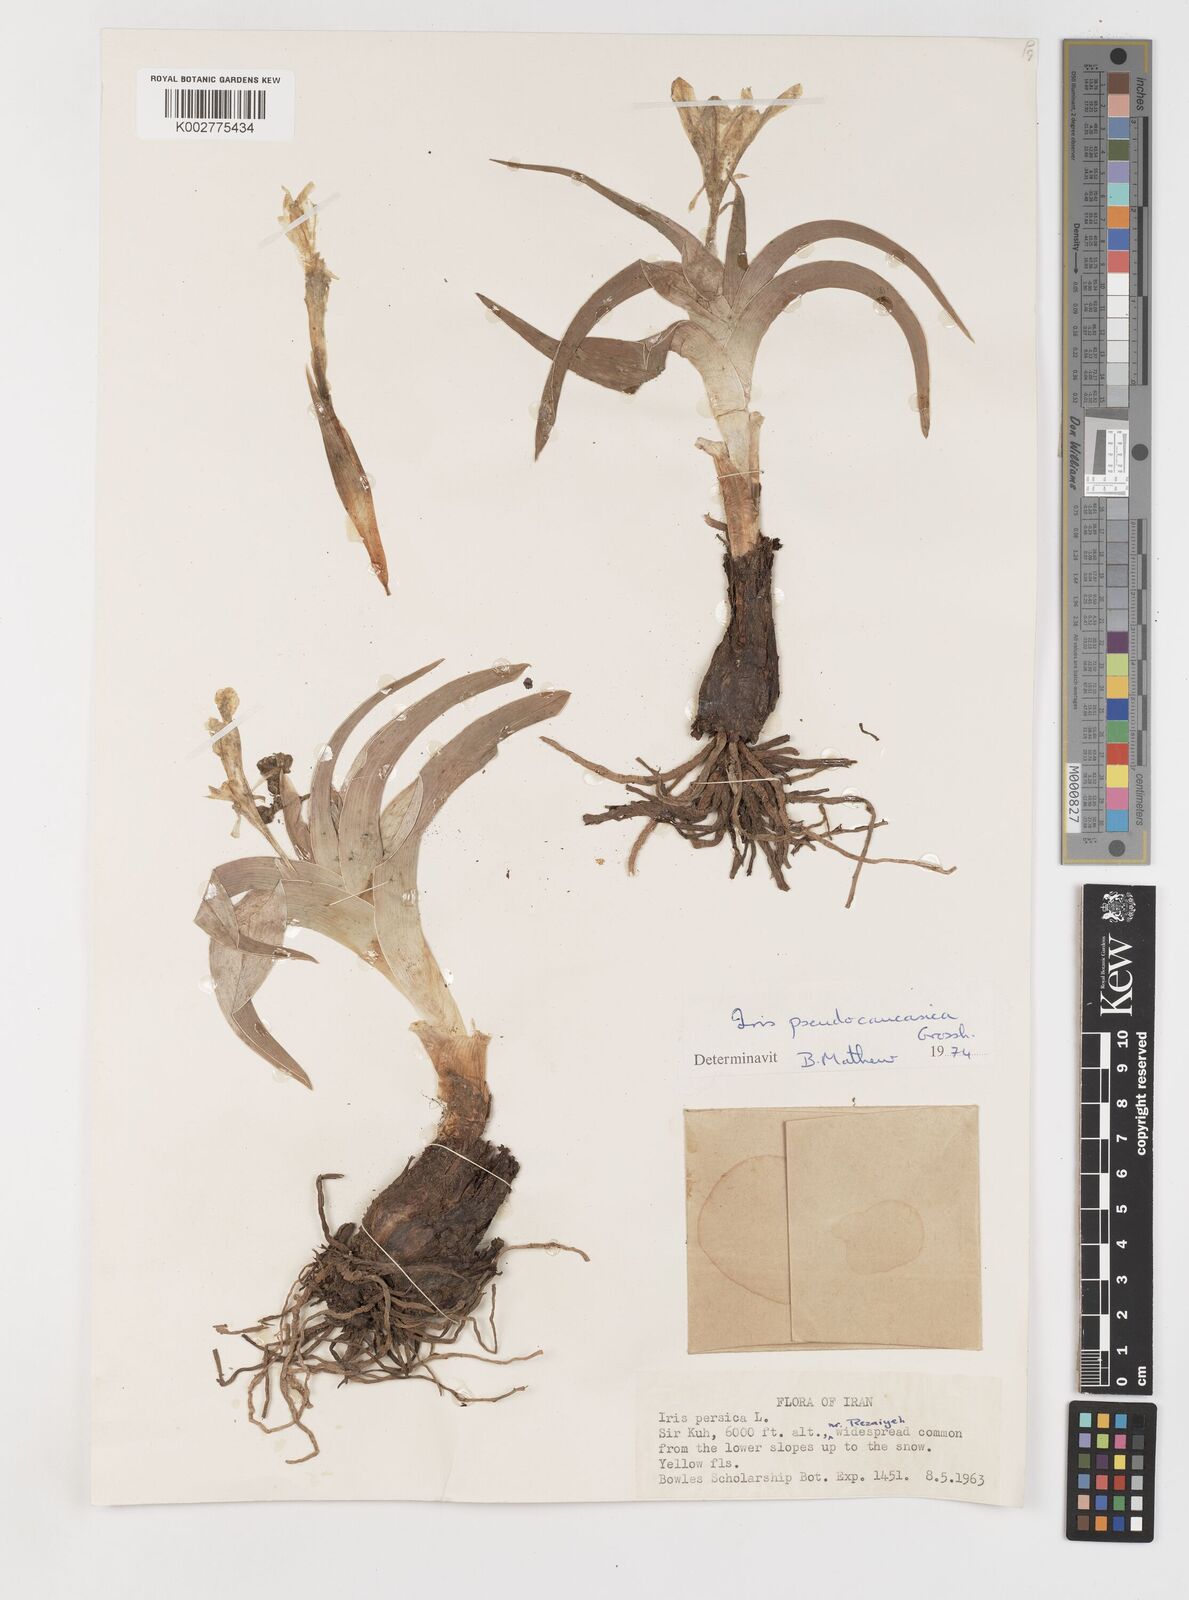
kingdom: Plantae
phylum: Tracheophyta
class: Liliopsida
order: Asparagales
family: Iridaceae
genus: Iris
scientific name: Iris pseudocaucasica
